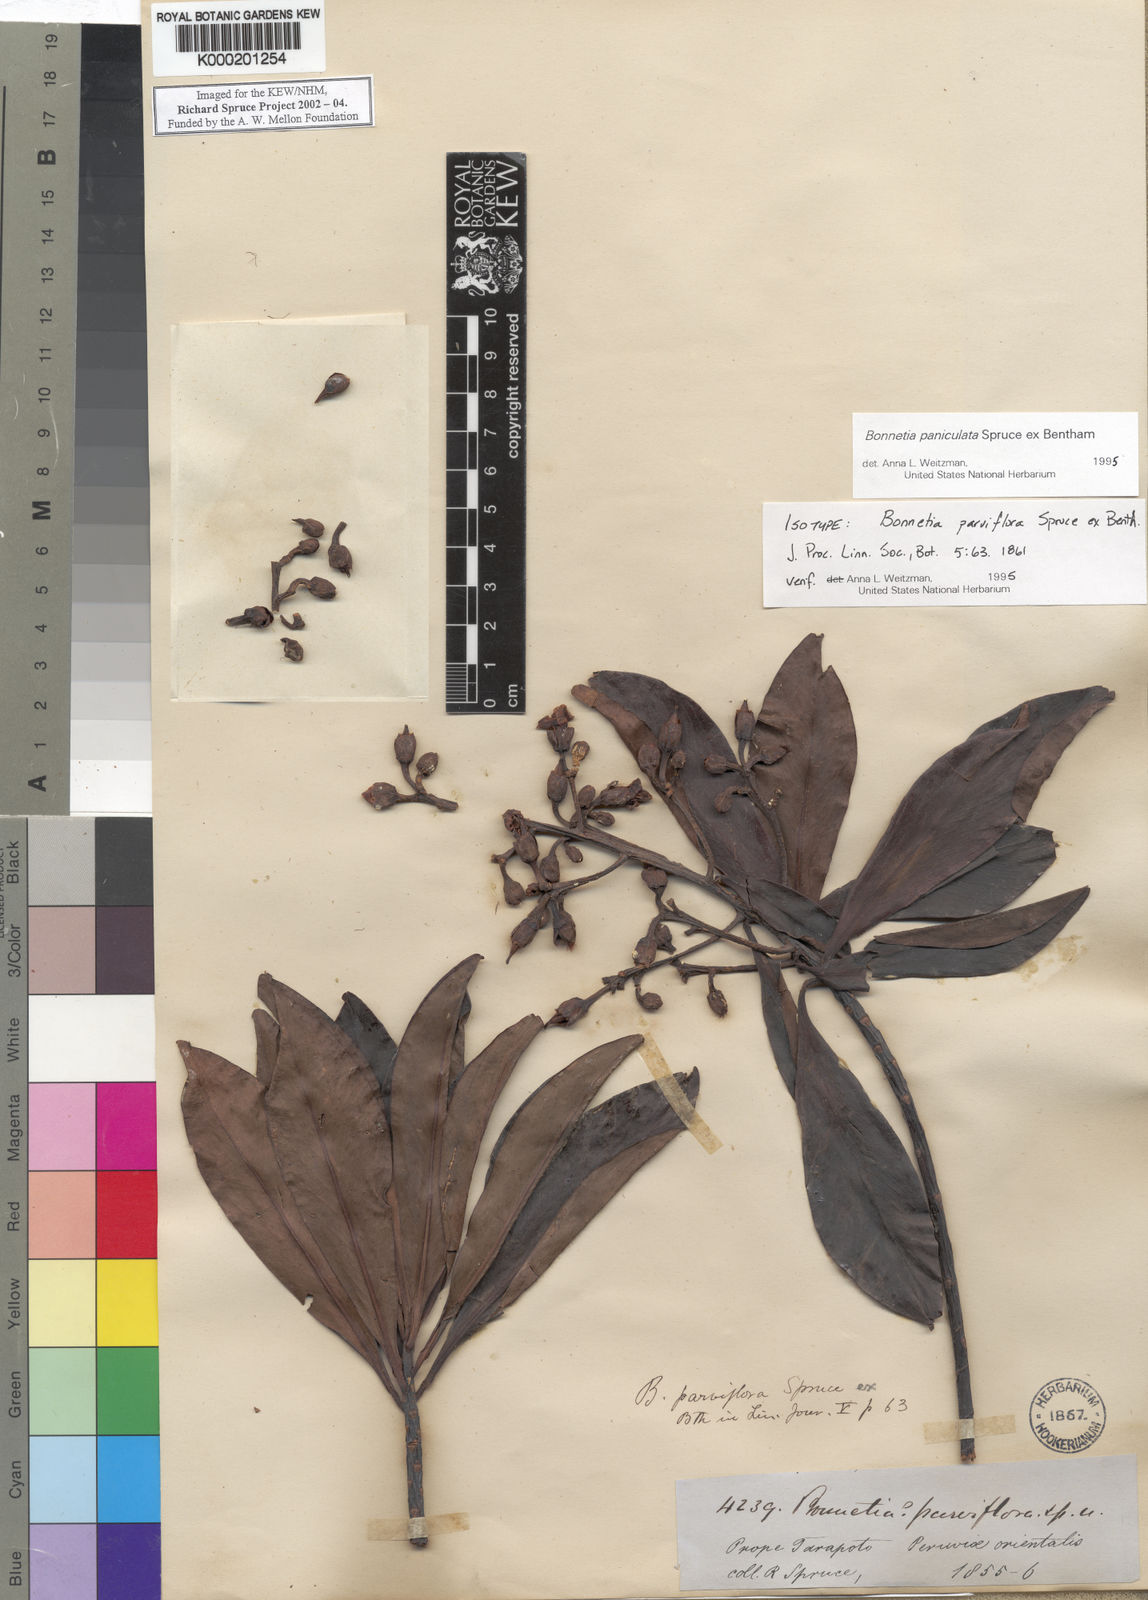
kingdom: Plantae
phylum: Tracheophyta
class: Magnoliopsida
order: Malpighiales
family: Bonnetiaceae
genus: Bonnetia
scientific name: Bonnetia paniculata
